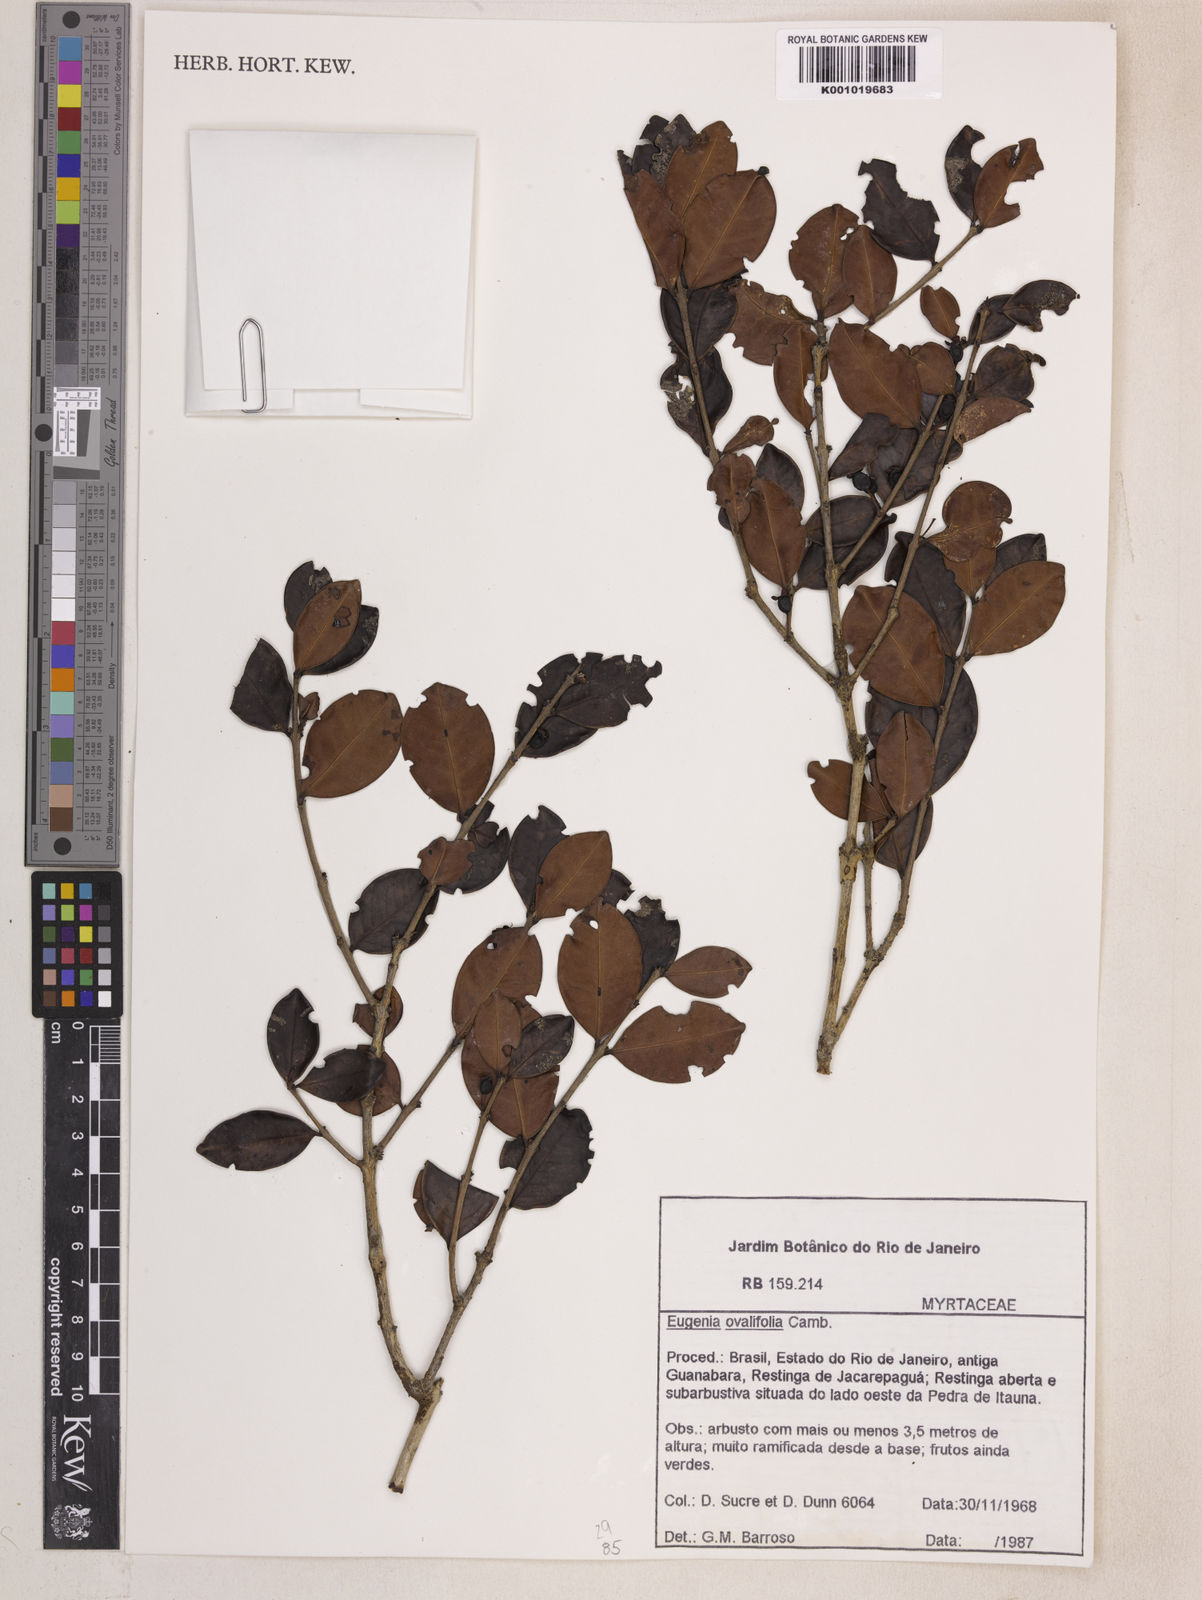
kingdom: Plantae
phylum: Tracheophyta
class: Magnoliopsida
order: Myrtales
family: Myrtaceae
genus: Eugenia
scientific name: Eugenia punicifolia
